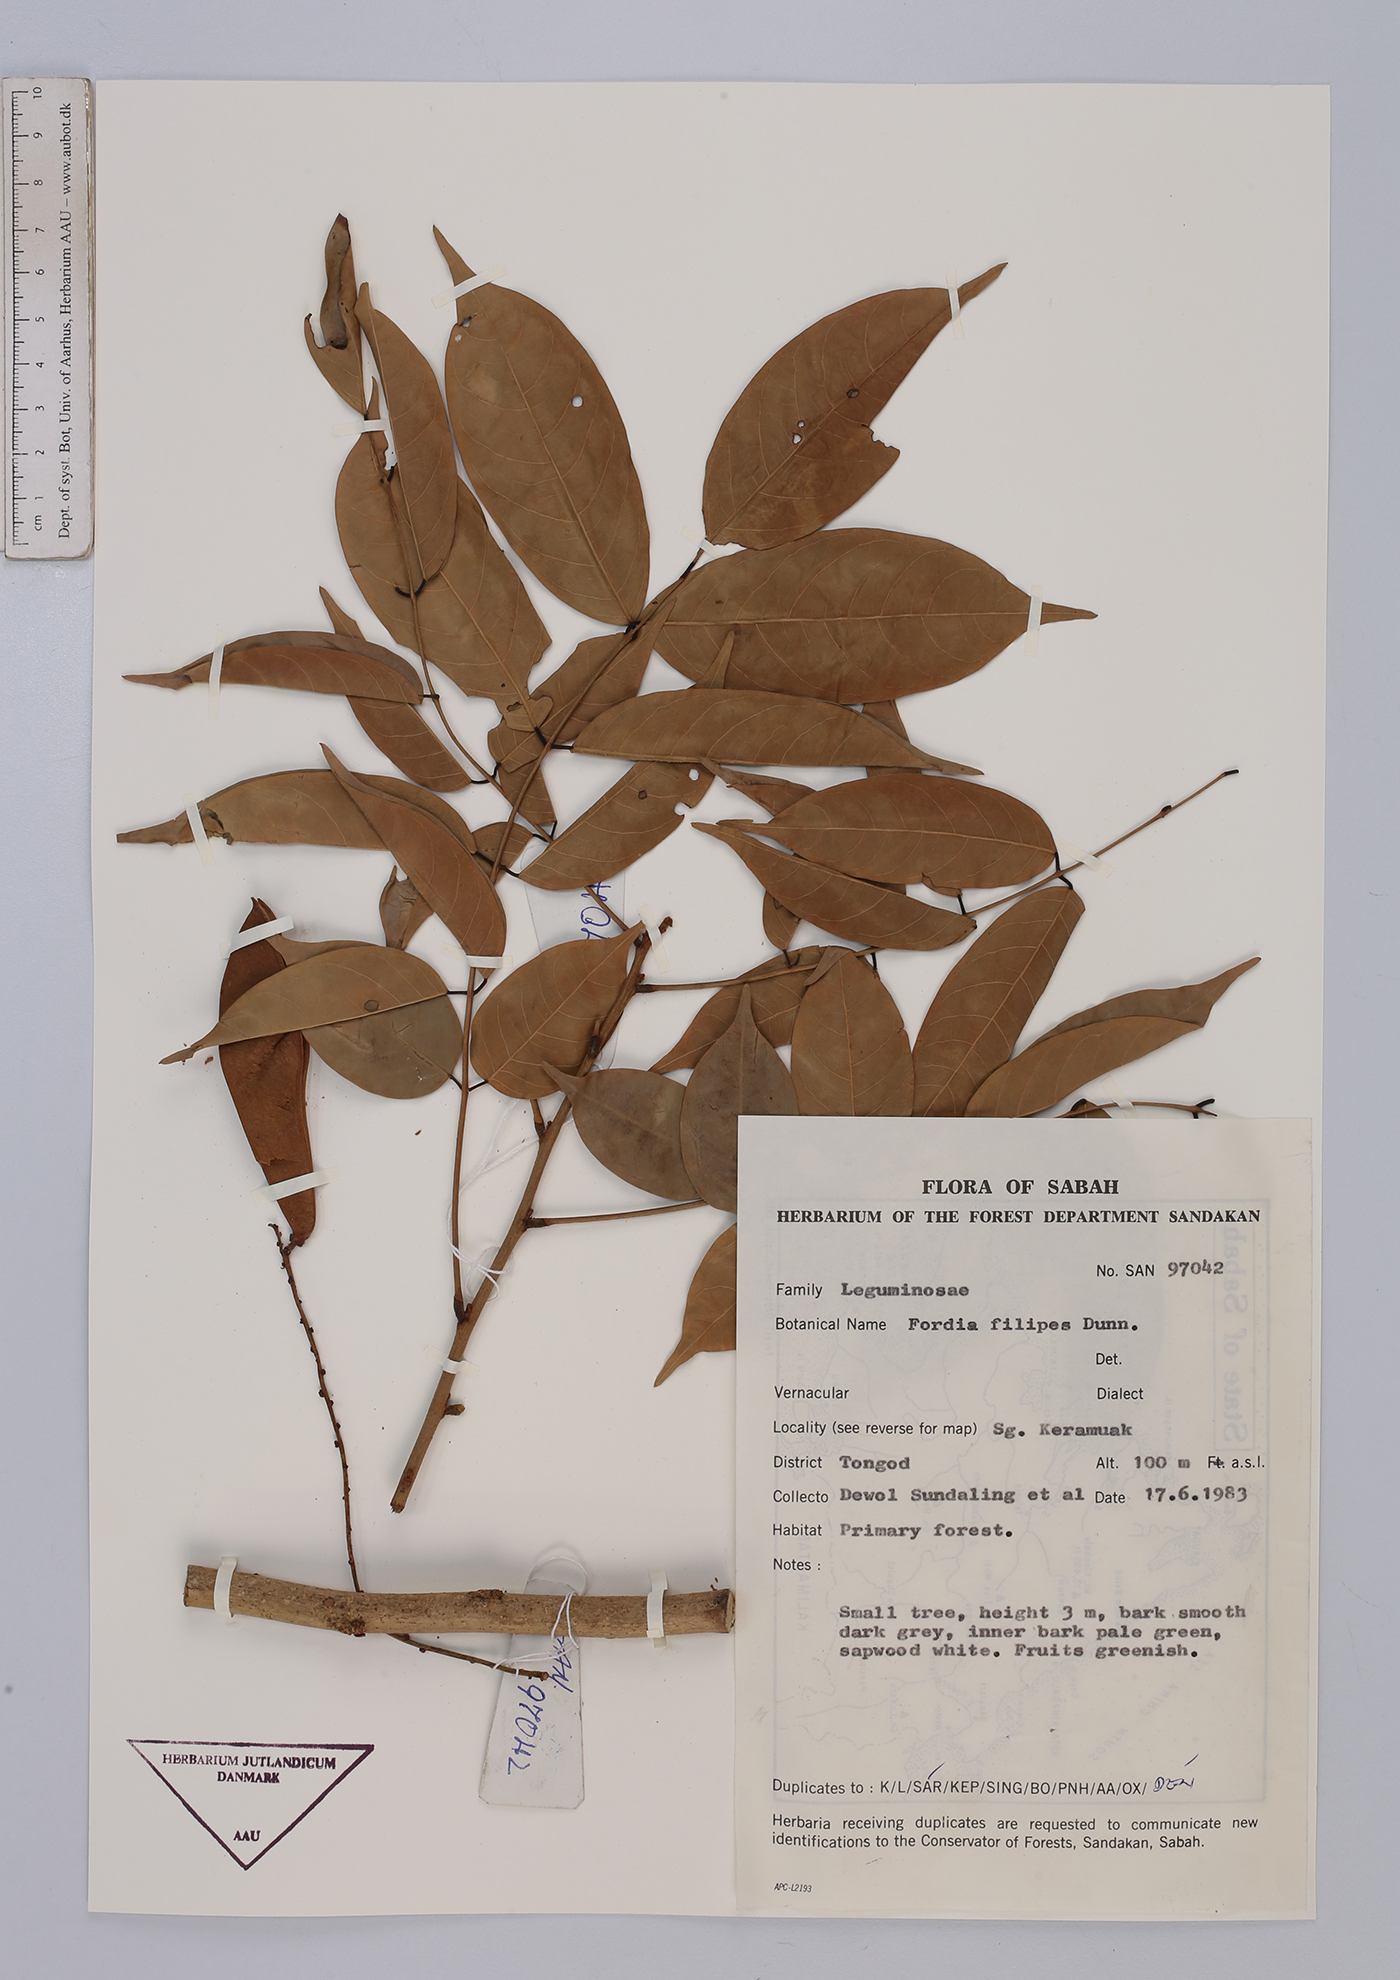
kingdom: Plantae
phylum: Tracheophyta
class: Magnoliopsida
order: Fabales
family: Fabaceae
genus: Fordia
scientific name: Fordia splendidissima
